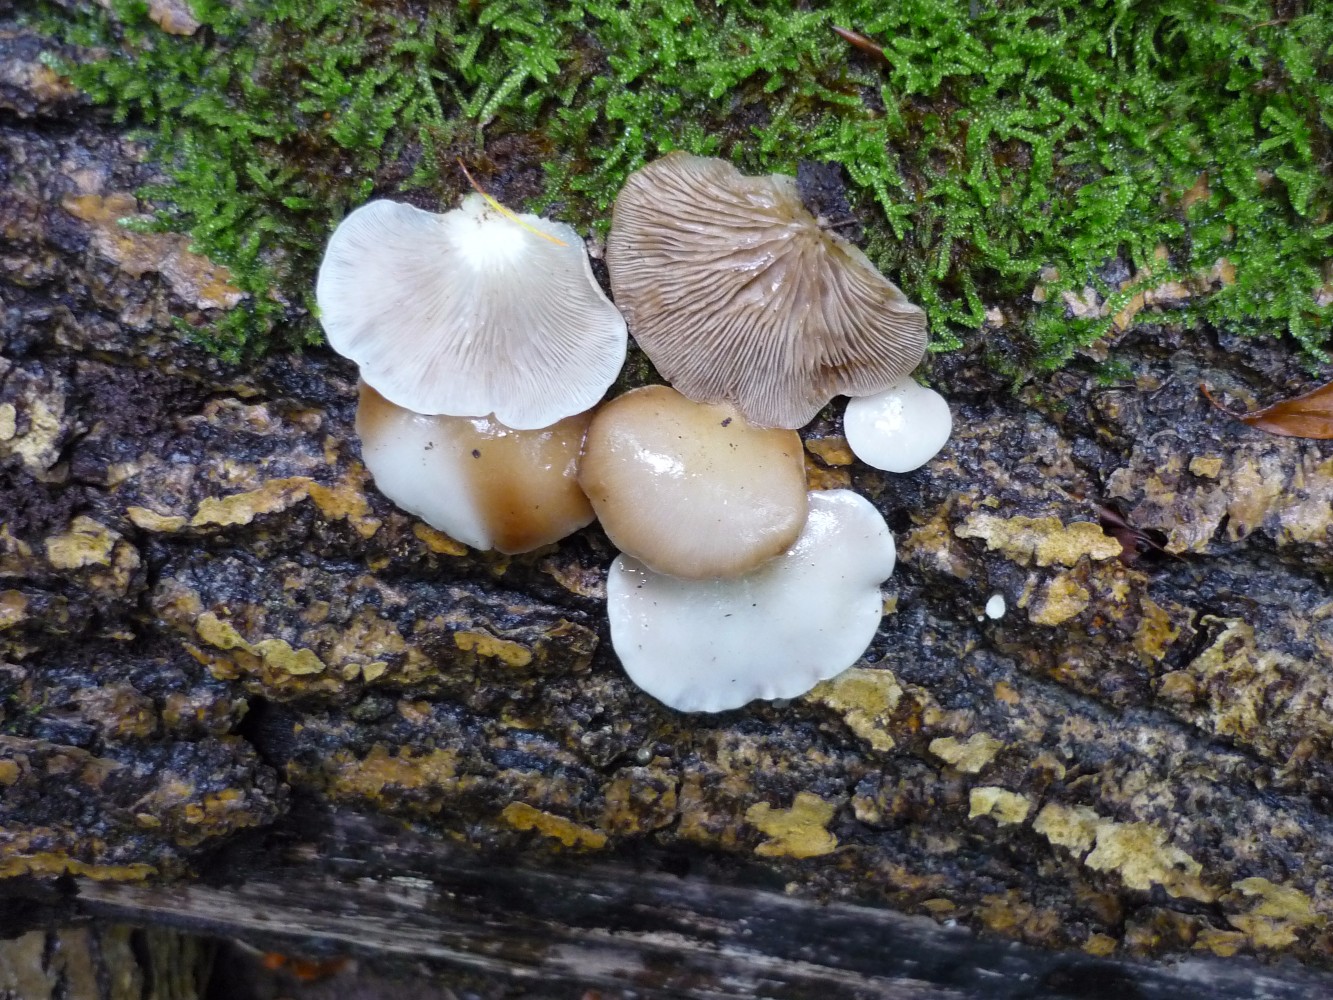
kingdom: Fungi
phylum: Basidiomycota
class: Agaricomycetes
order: Agaricales
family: Crepidotaceae
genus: Crepidotus
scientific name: Crepidotus mollis
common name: blød muslingesvamp
